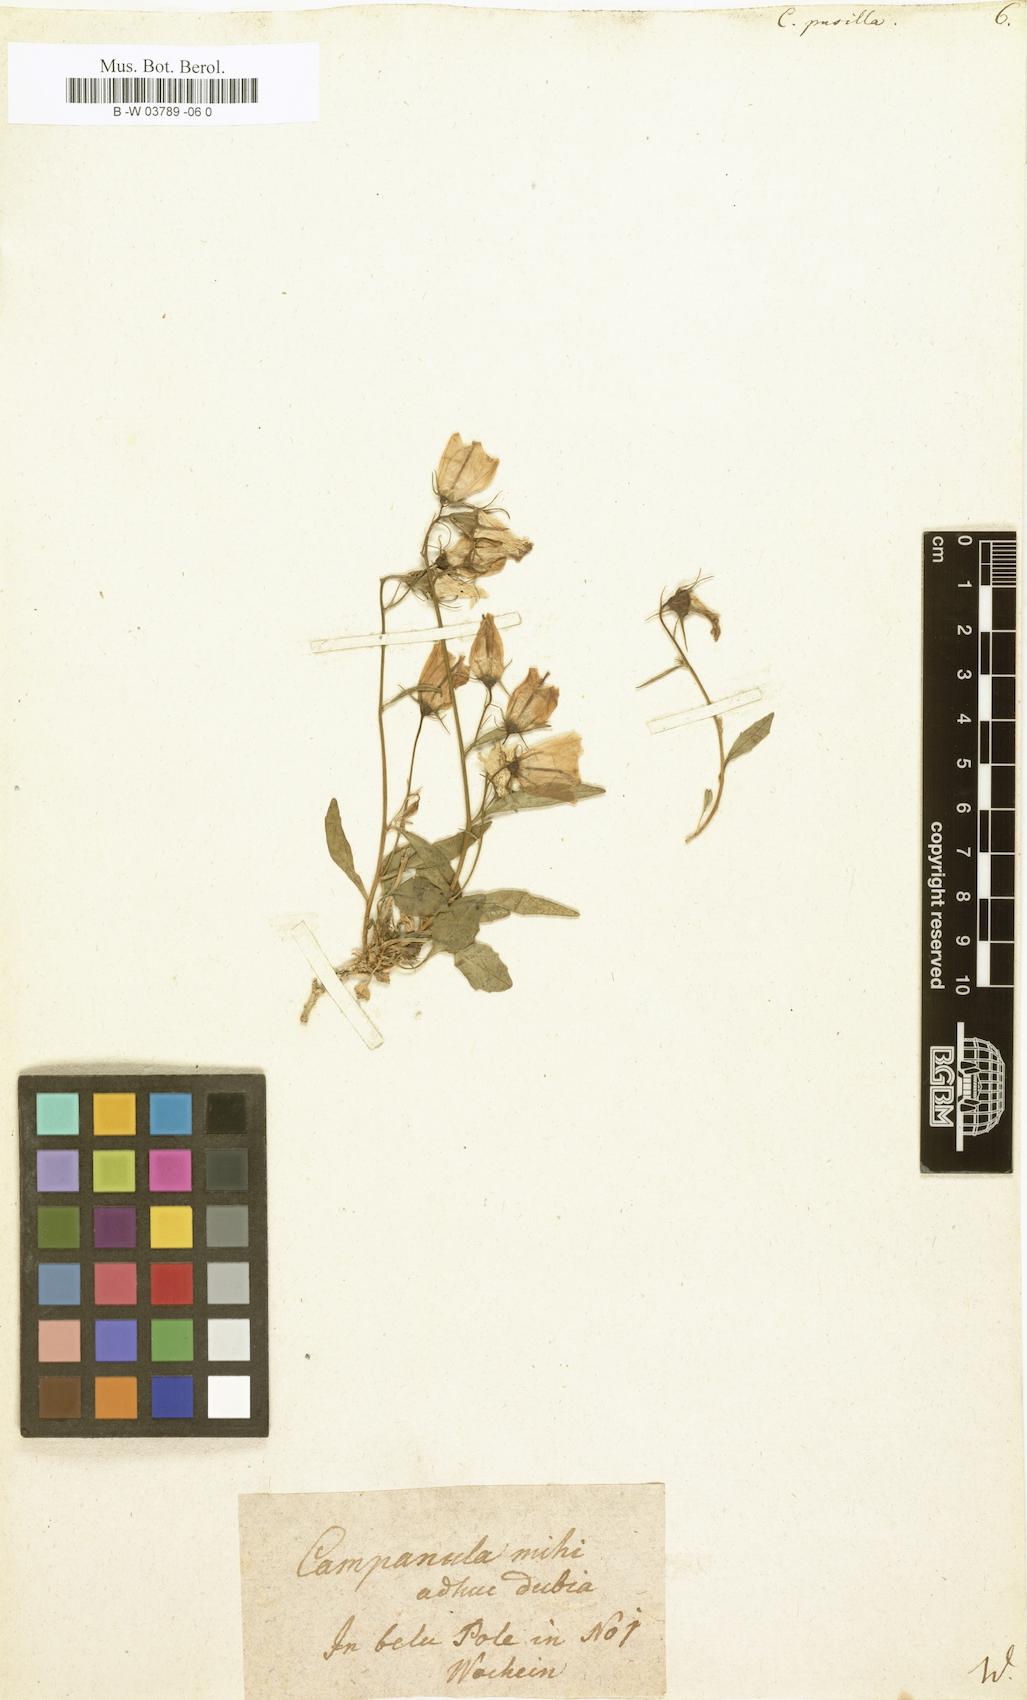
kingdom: Plantae
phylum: Tracheophyta
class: Magnoliopsida
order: Asterales
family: Campanulaceae
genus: Campanula
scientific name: Campanula cochleariifolia
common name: Fairies'-thimbles
